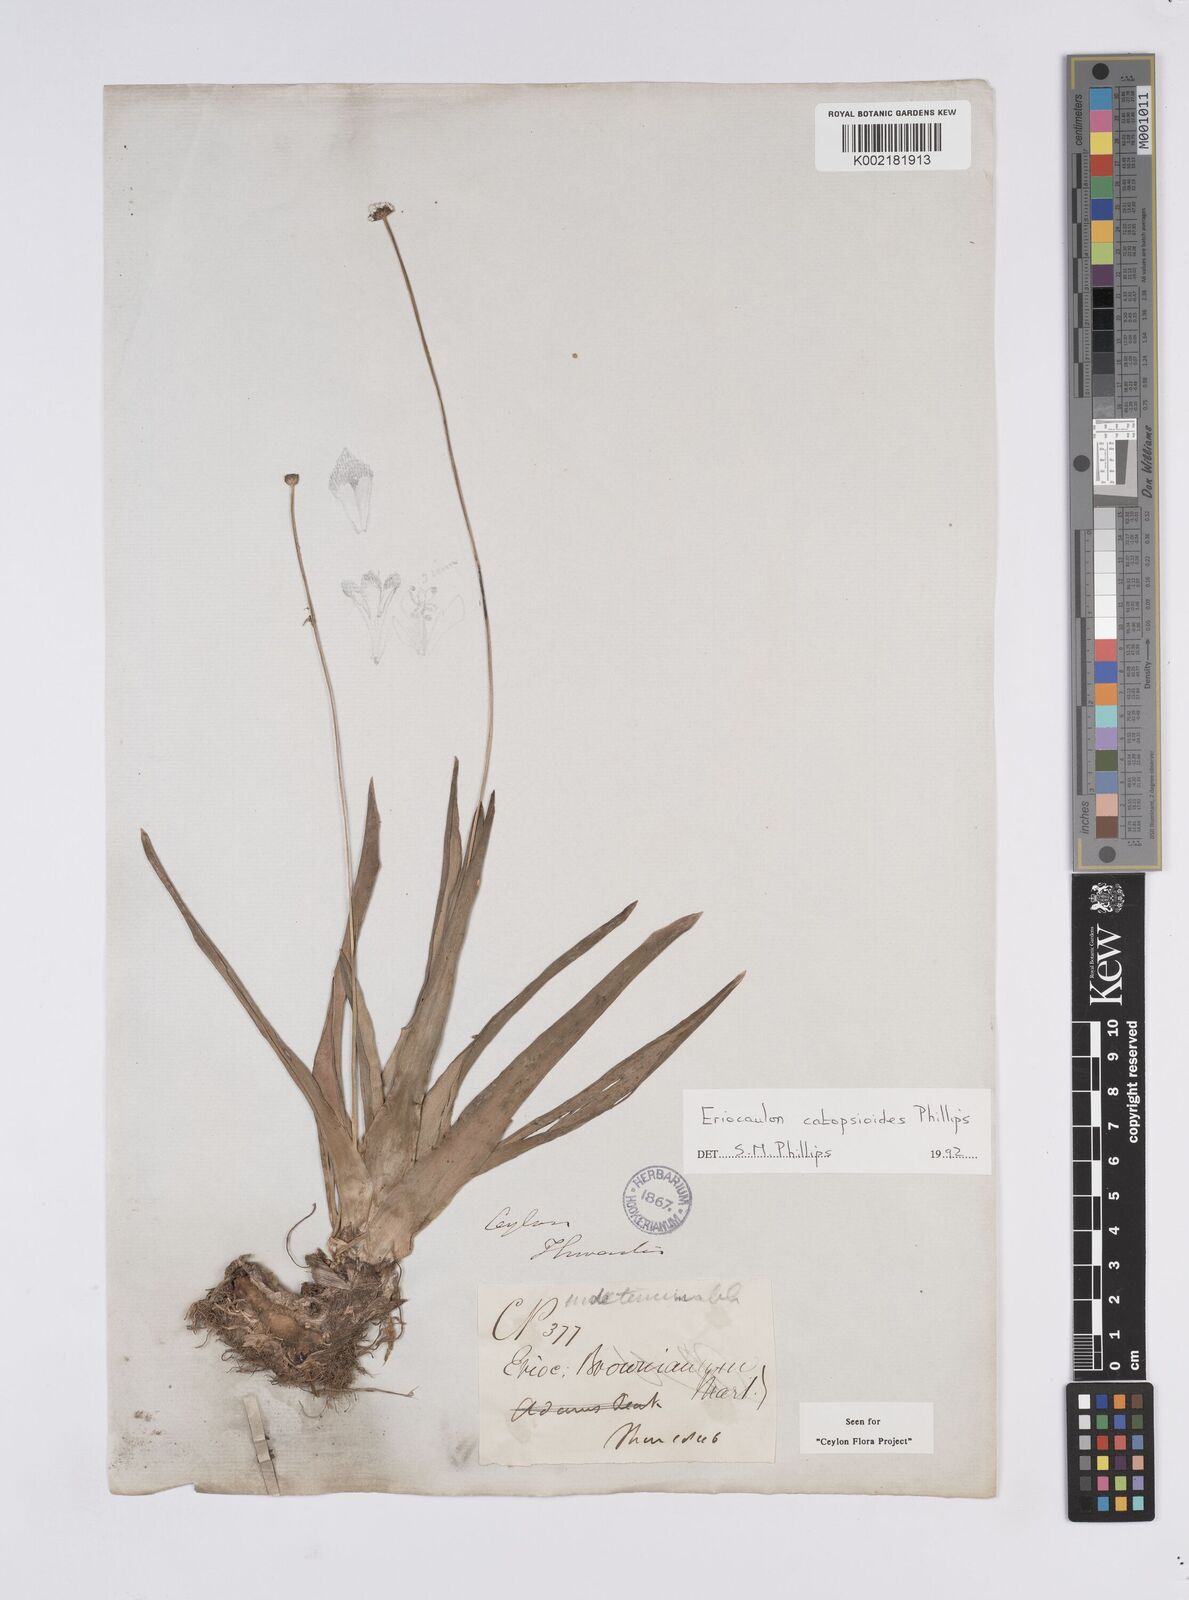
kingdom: Plantae
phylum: Tracheophyta
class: Liliopsida
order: Poales
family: Eriocaulaceae
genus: Eriocaulon
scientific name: Eriocaulon catopsioides
